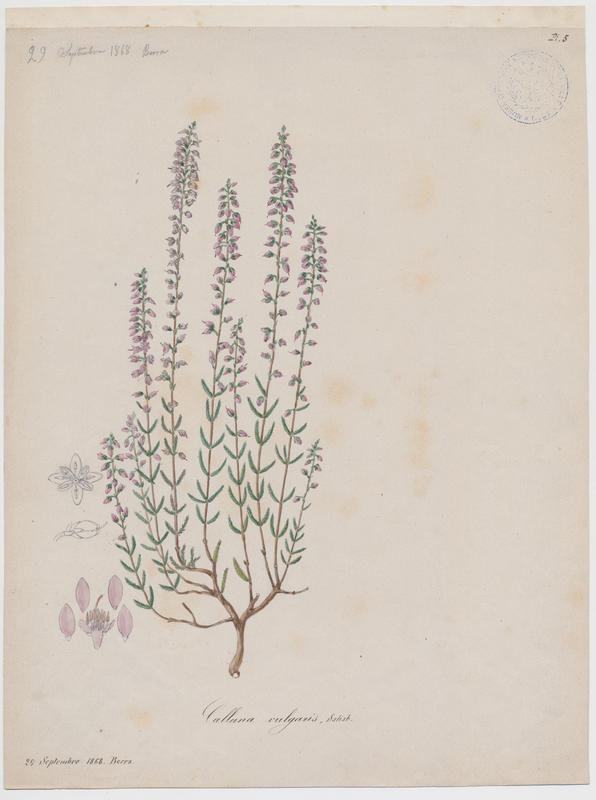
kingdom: Plantae
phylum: Tracheophyta
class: Magnoliopsida
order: Ericales
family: Ericaceae
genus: Calluna
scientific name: Calluna vulgaris
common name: Heather
